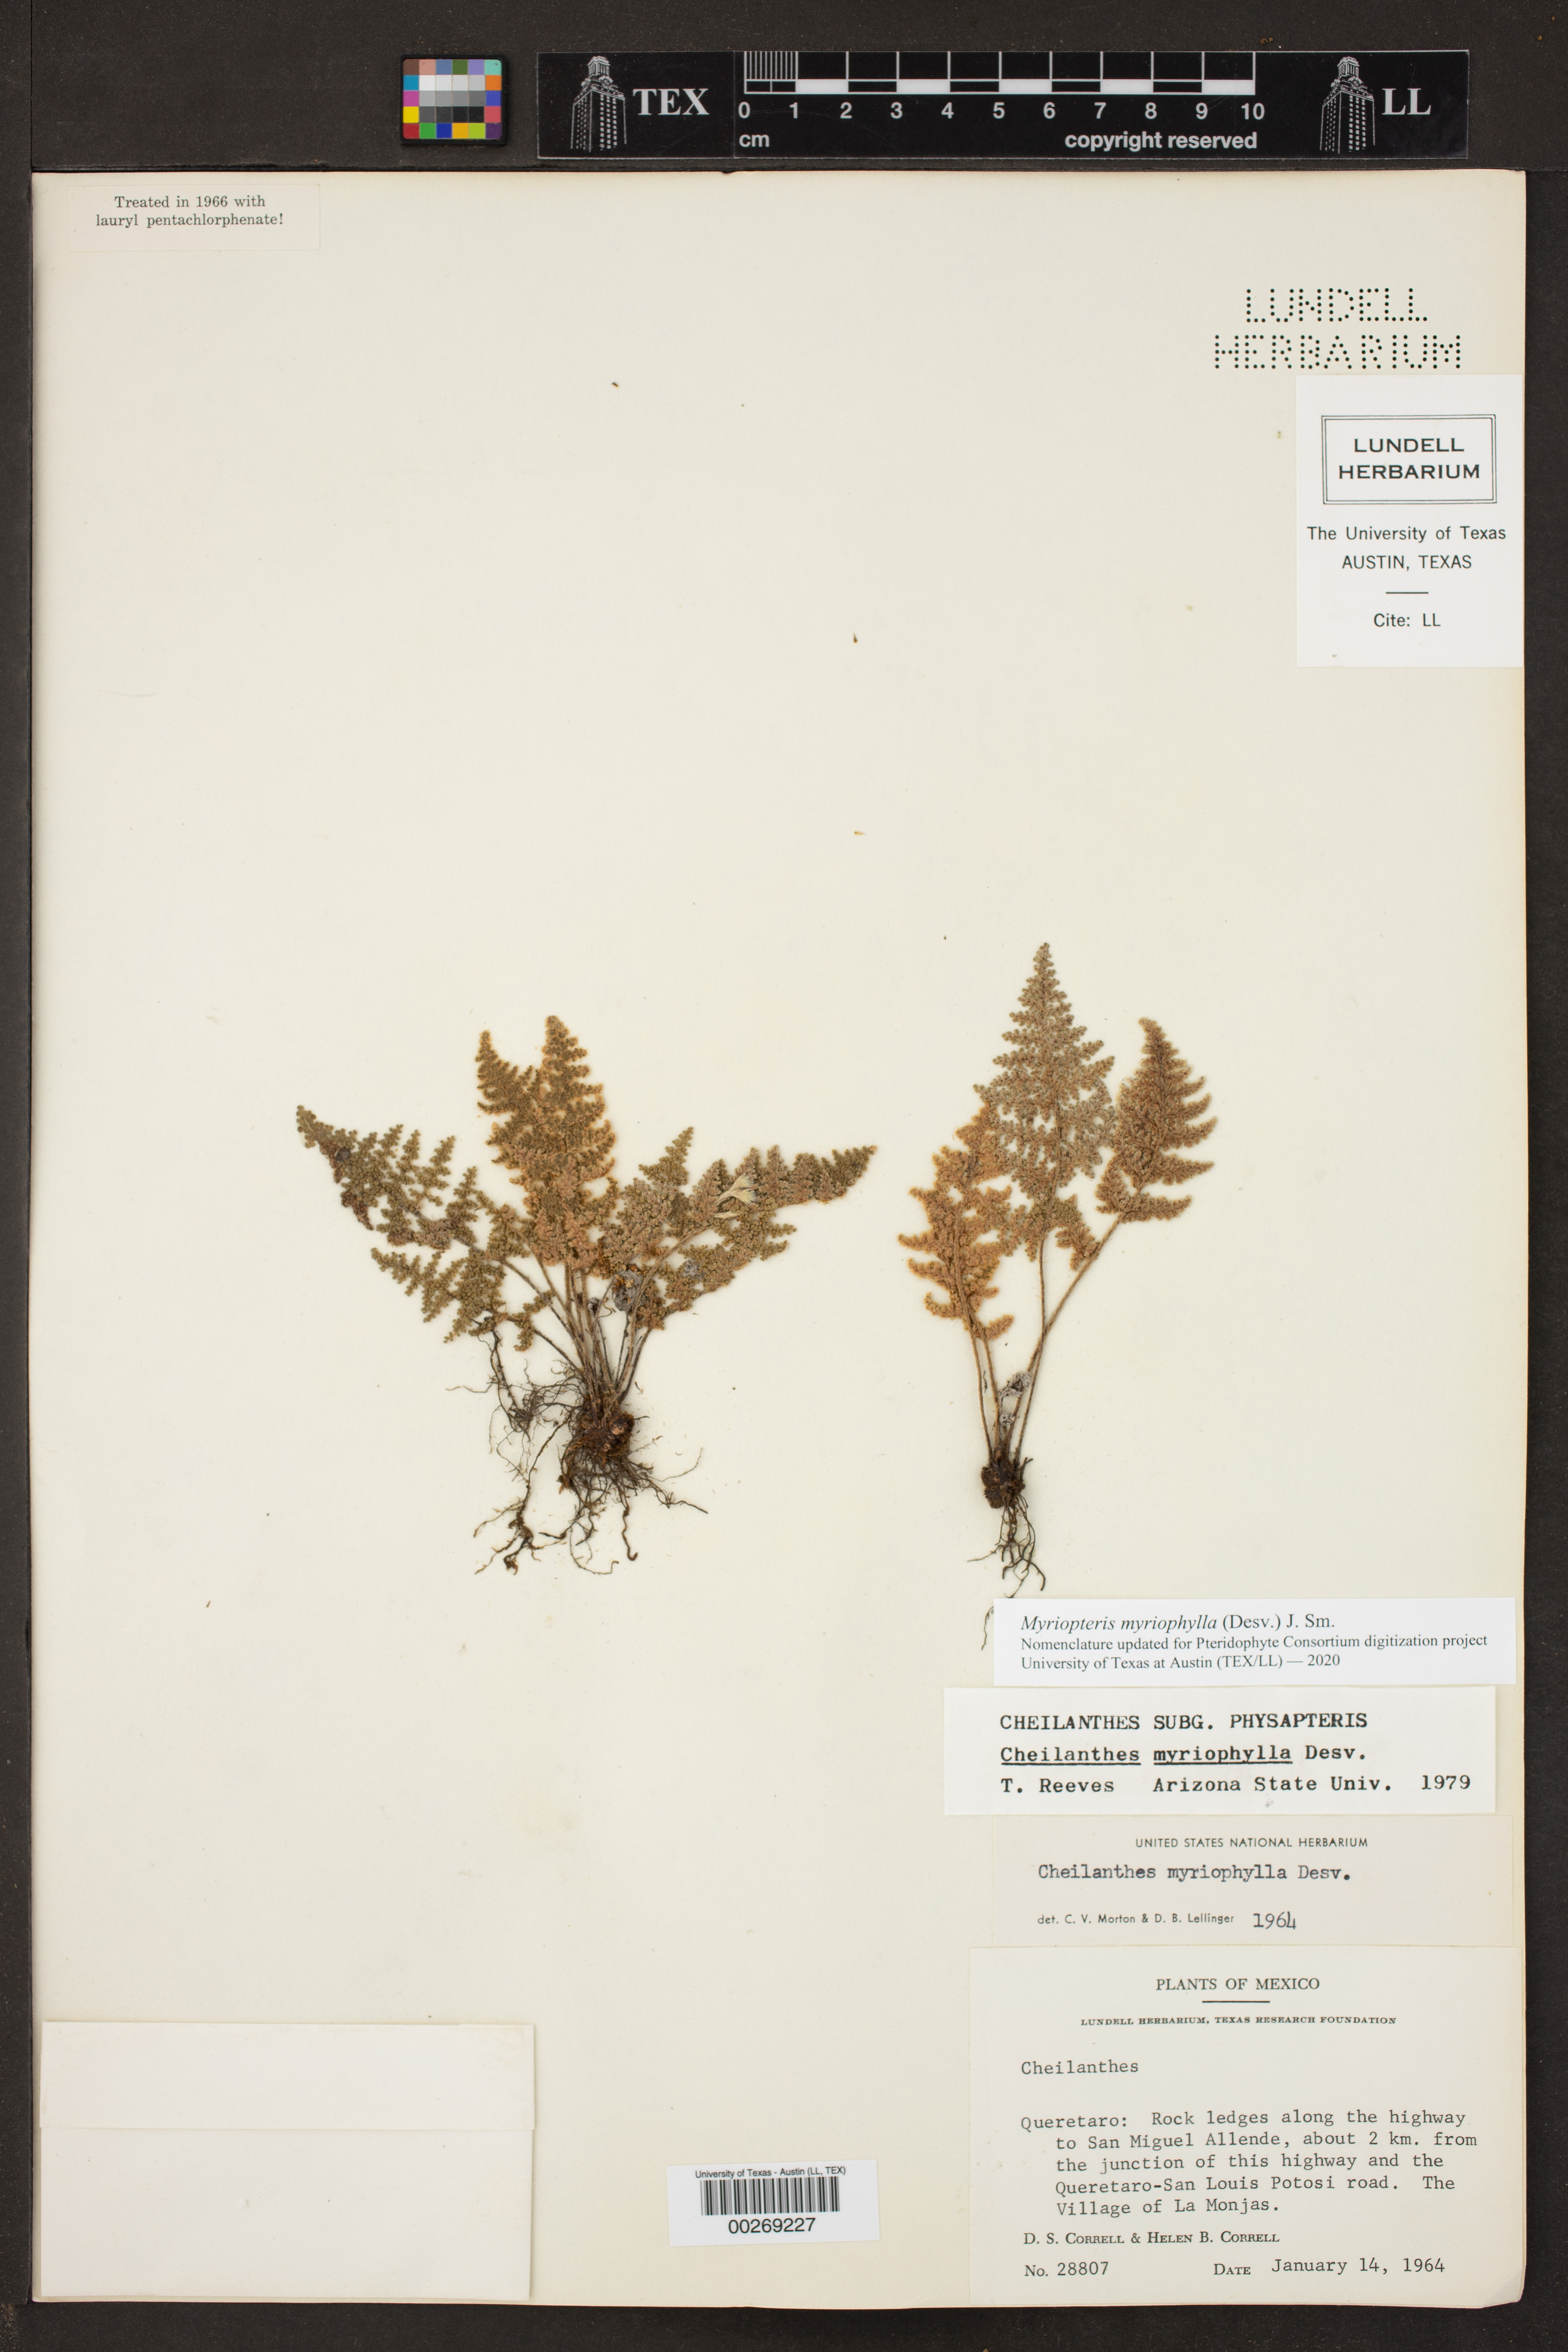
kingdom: Plantae
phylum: Tracheophyta
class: Polypodiopsida
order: Polypodiales
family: Pteridaceae
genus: Myriopteris
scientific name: Myriopteris myriophylla
